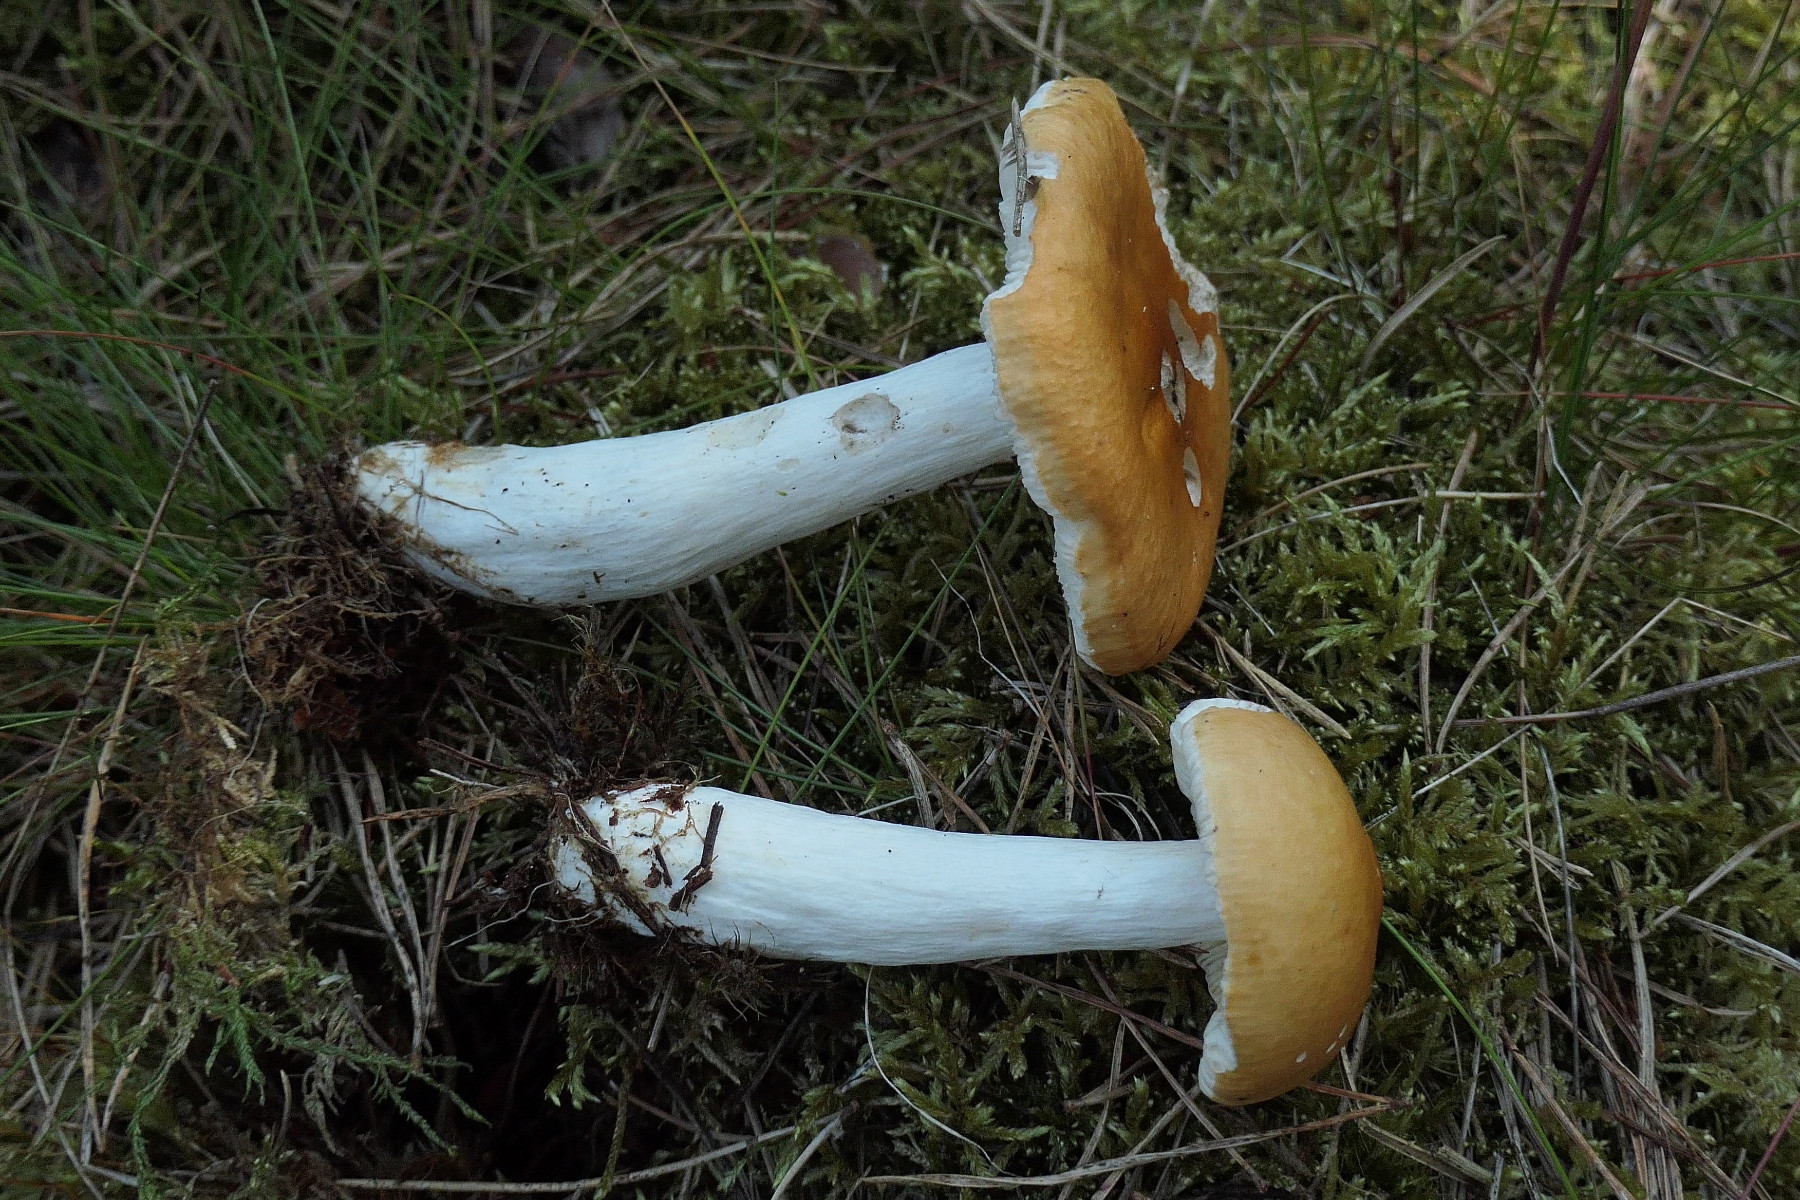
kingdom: Fungi
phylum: Basidiomycota
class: Agaricomycetes
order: Russulales
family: Russulaceae
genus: Russula
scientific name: Russula decolorans
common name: afblegende skørhat
